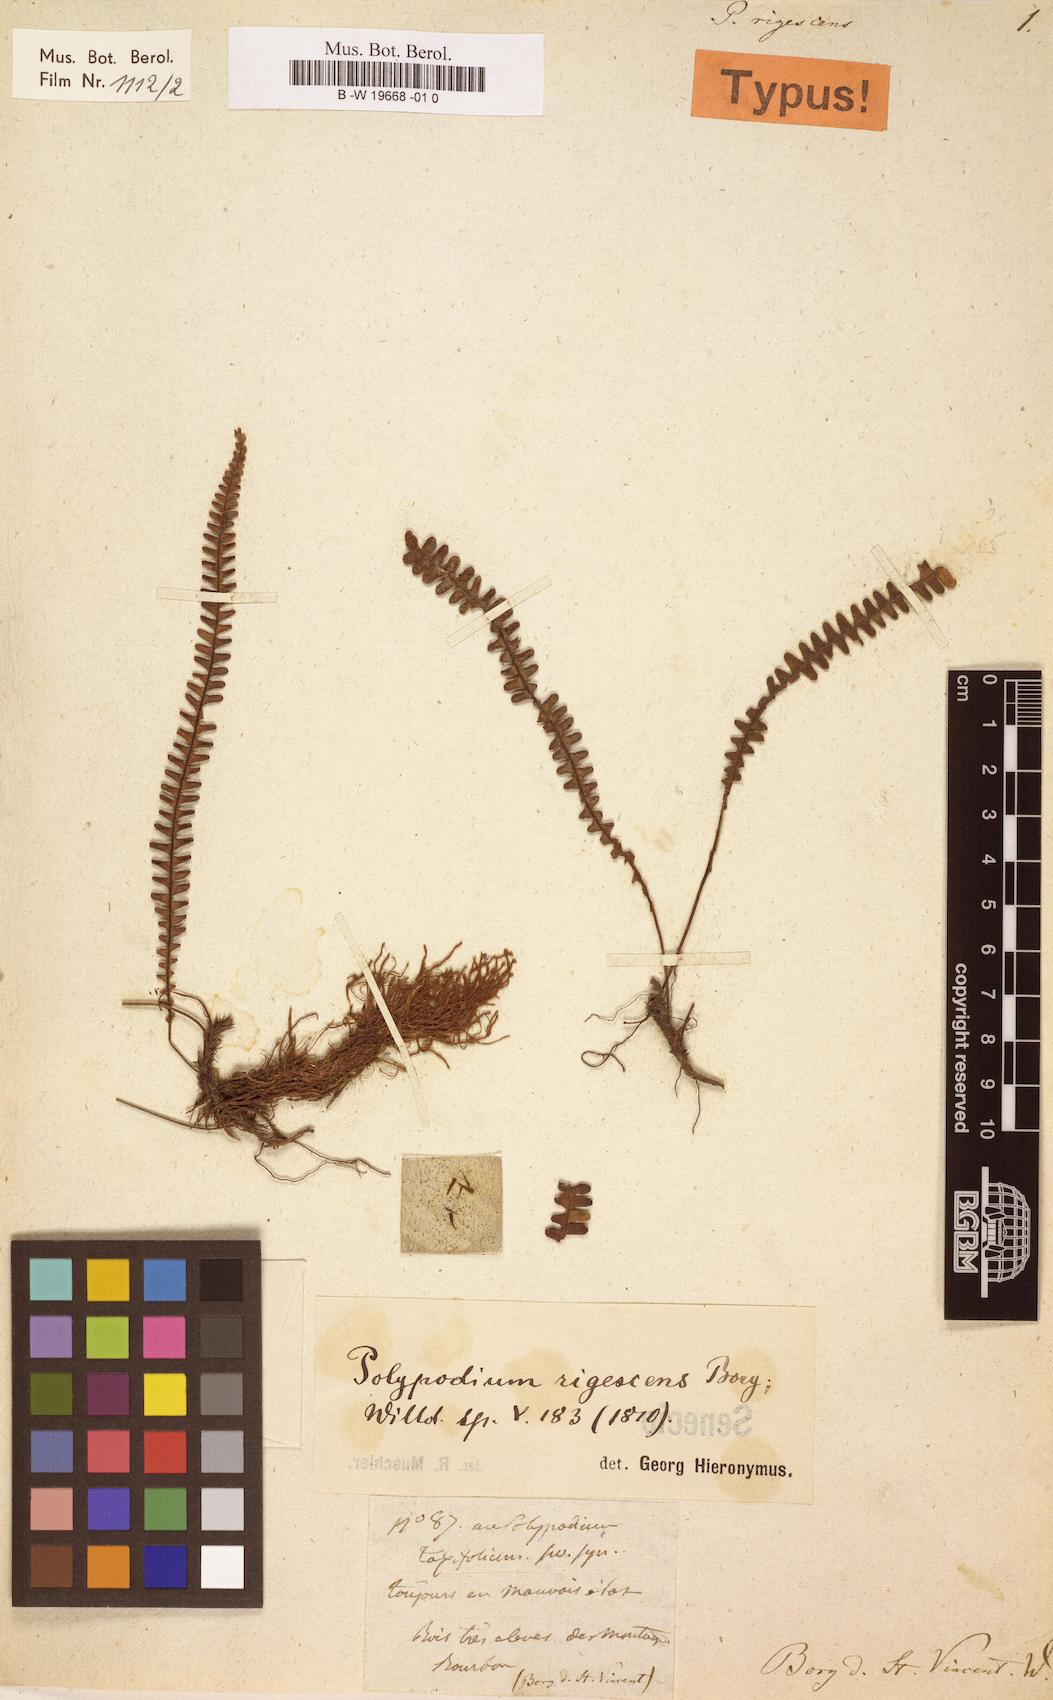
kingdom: Plantae
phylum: Tracheophyta
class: Polypodiopsida
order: Polypodiales
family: Polypodiaceae
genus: Melpomene
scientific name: Melpomene flabelliformis
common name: Fanleaf dwarf polypody
